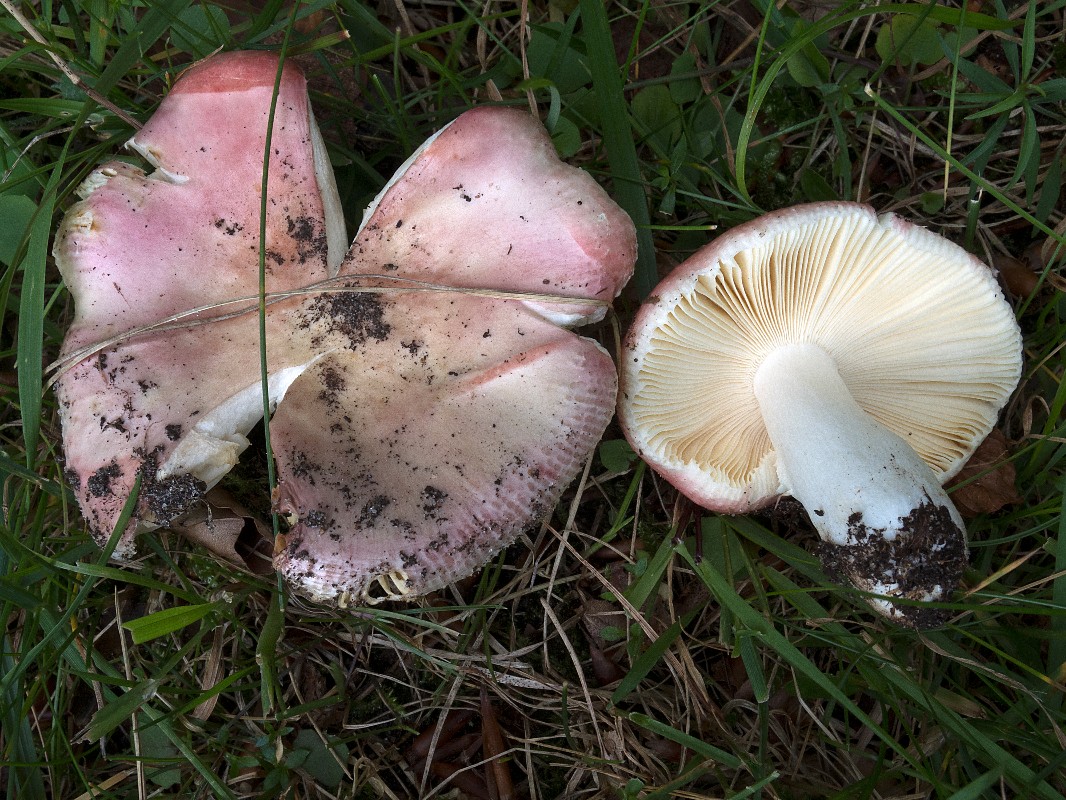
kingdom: Fungi
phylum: Basidiomycota
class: Agaricomycetes
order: Russulales
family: Russulaceae
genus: Russula
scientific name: Russula veternosa
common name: blødkødet skørhat
